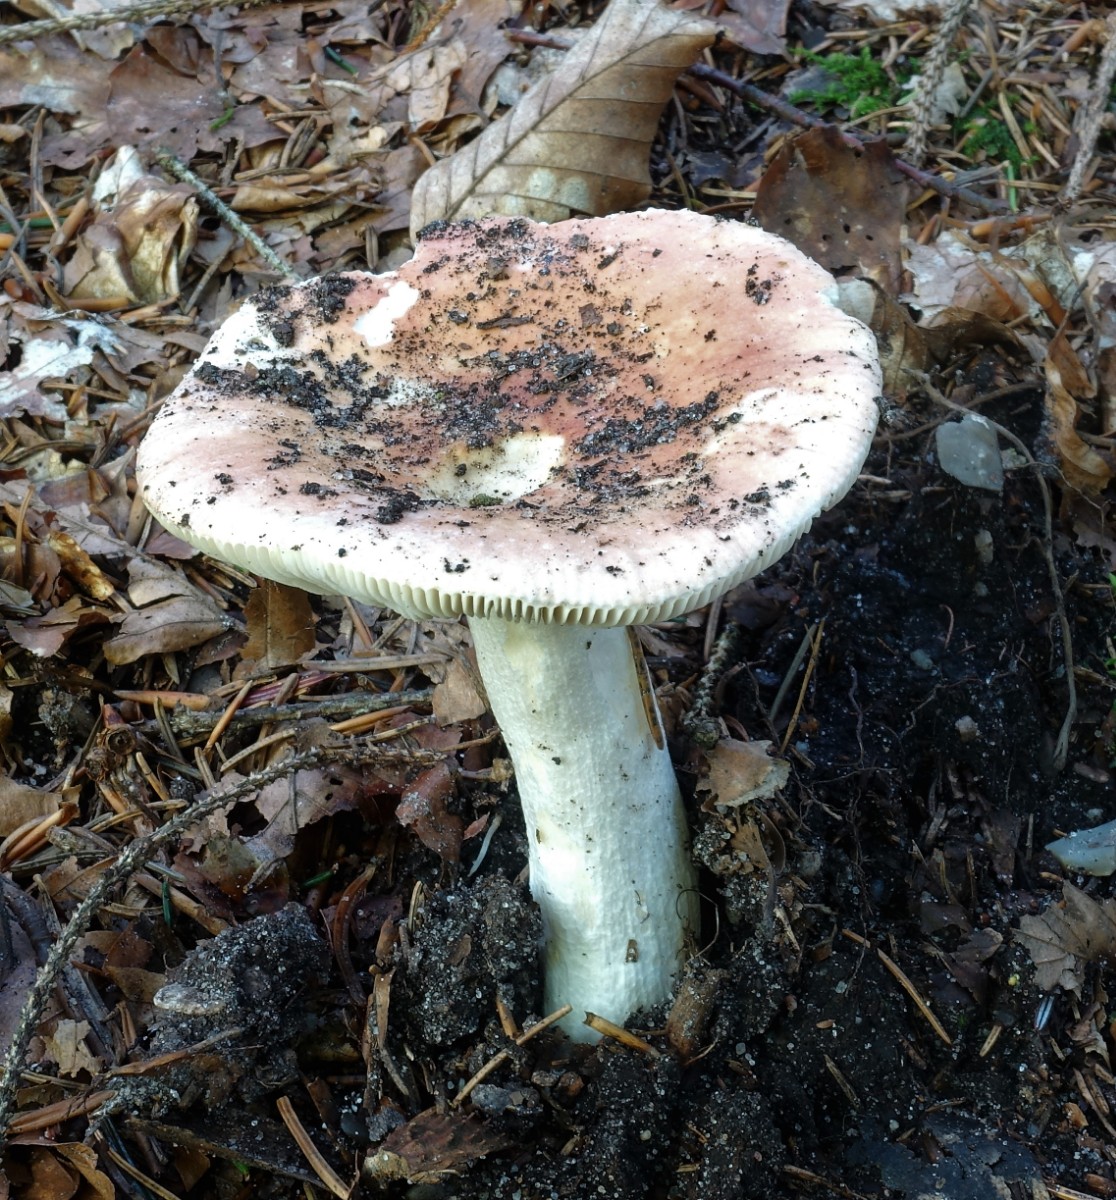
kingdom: Fungi
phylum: Basidiomycota
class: Agaricomycetes
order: Russulales
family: Russulaceae
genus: Russula
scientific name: Russula aurora
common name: rosa skørhat
